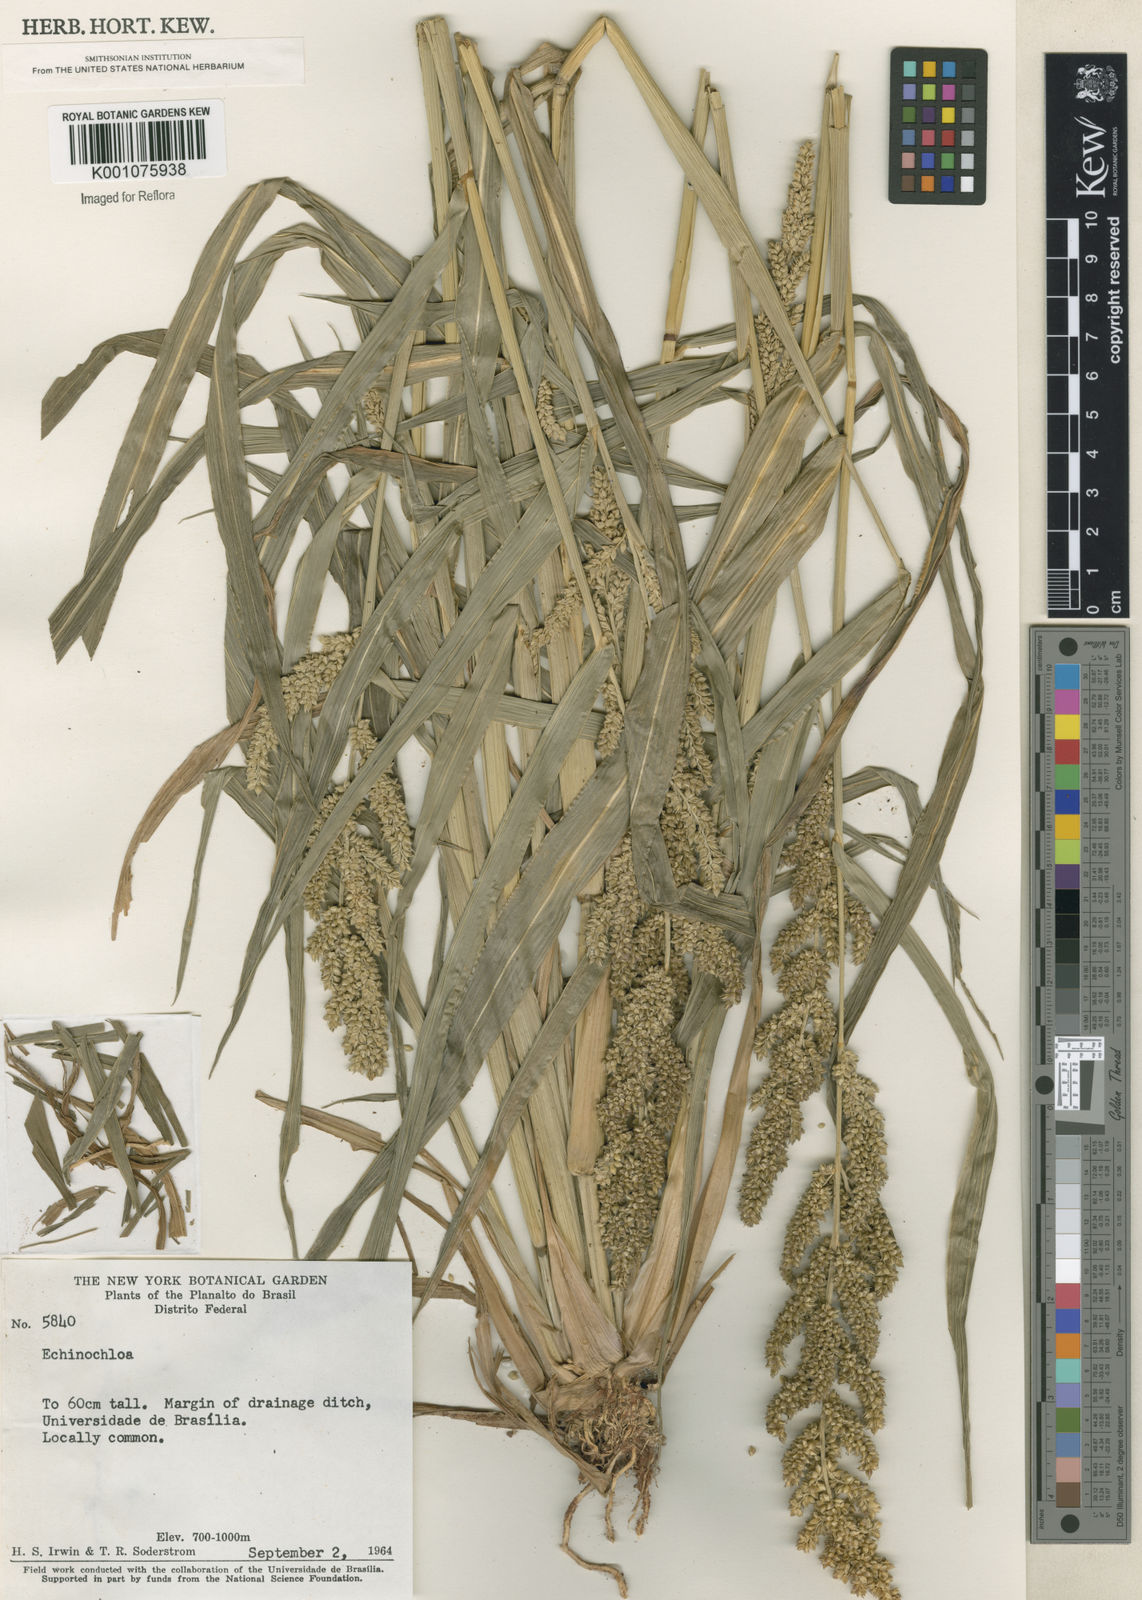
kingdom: Plantae
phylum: Tracheophyta
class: Liliopsida
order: Poales
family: Poaceae
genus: Echinochloa
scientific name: Echinochloa crus-galli
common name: Cockspur
